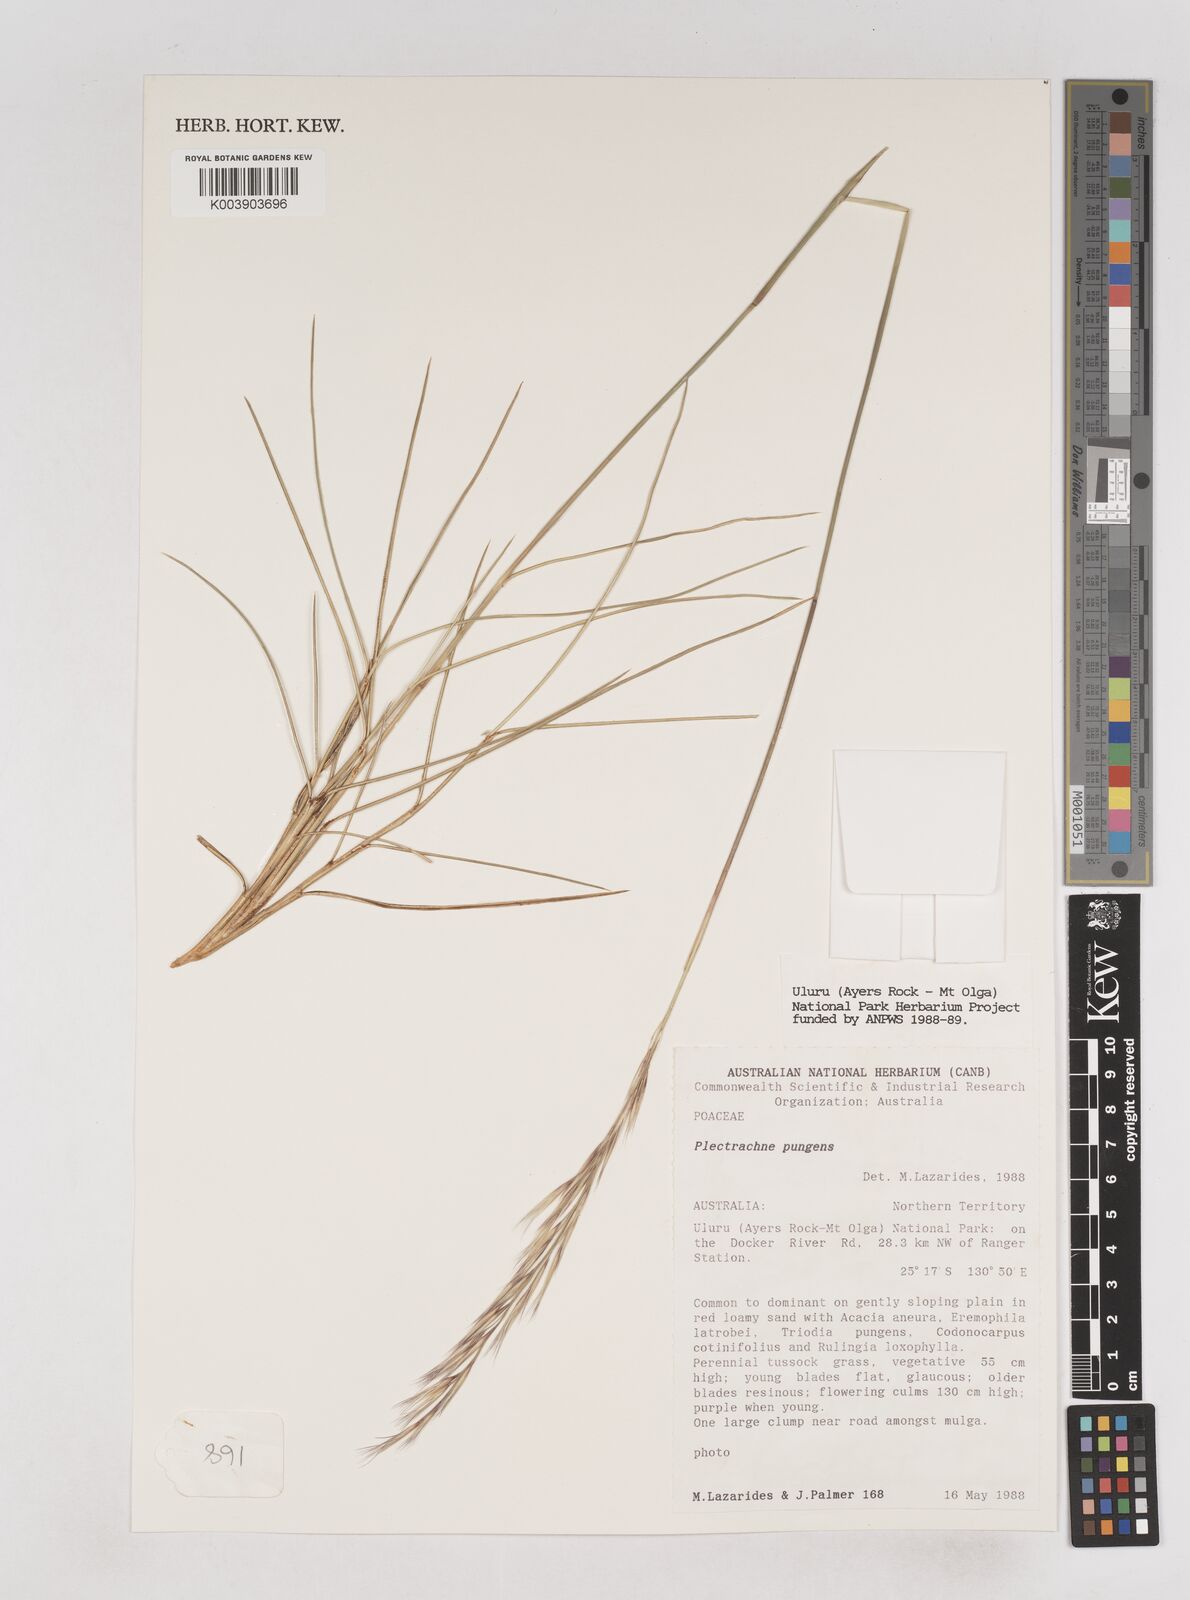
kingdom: Plantae
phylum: Tracheophyta
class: Liliopsida
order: Poales
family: Poaceae
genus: Triodia
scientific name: Triodia bitextura
